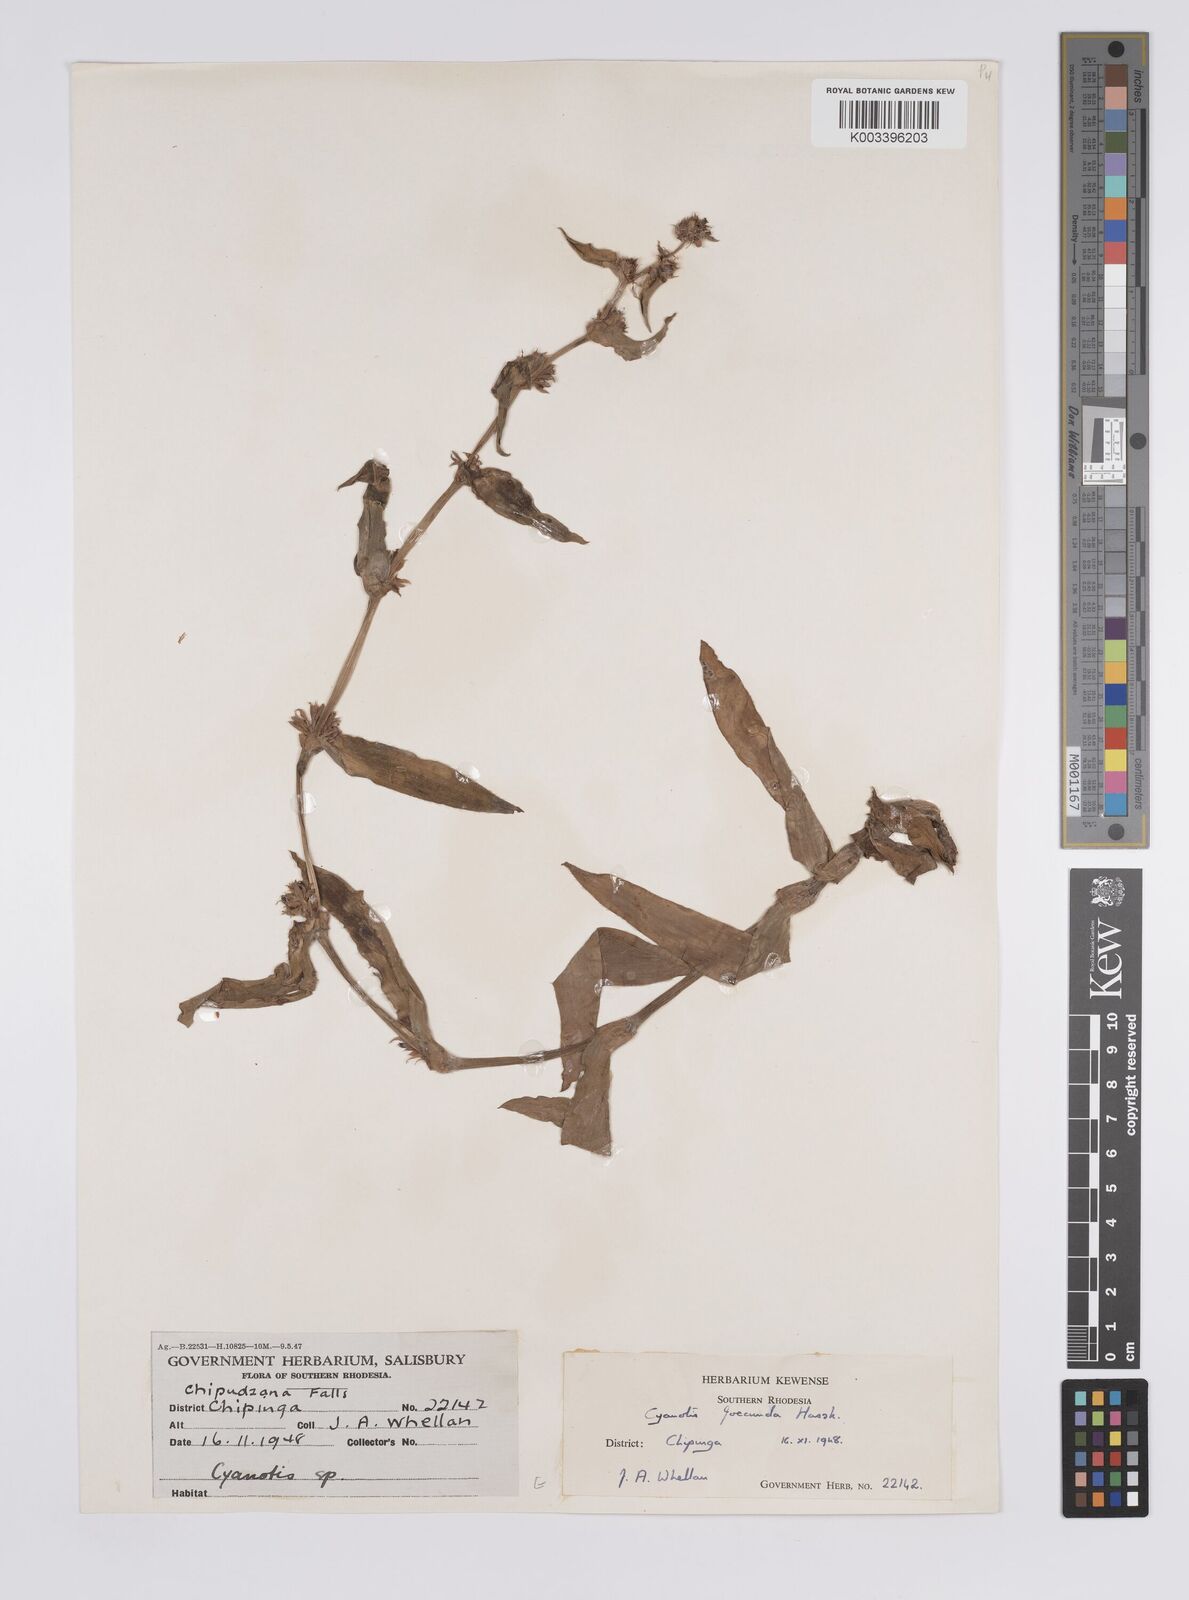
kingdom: Plantae
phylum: Tracheophyta
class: Liliopsida
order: Commelinales
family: Commelinaceae
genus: Cyanotis
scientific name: Cyanotis foecunda
